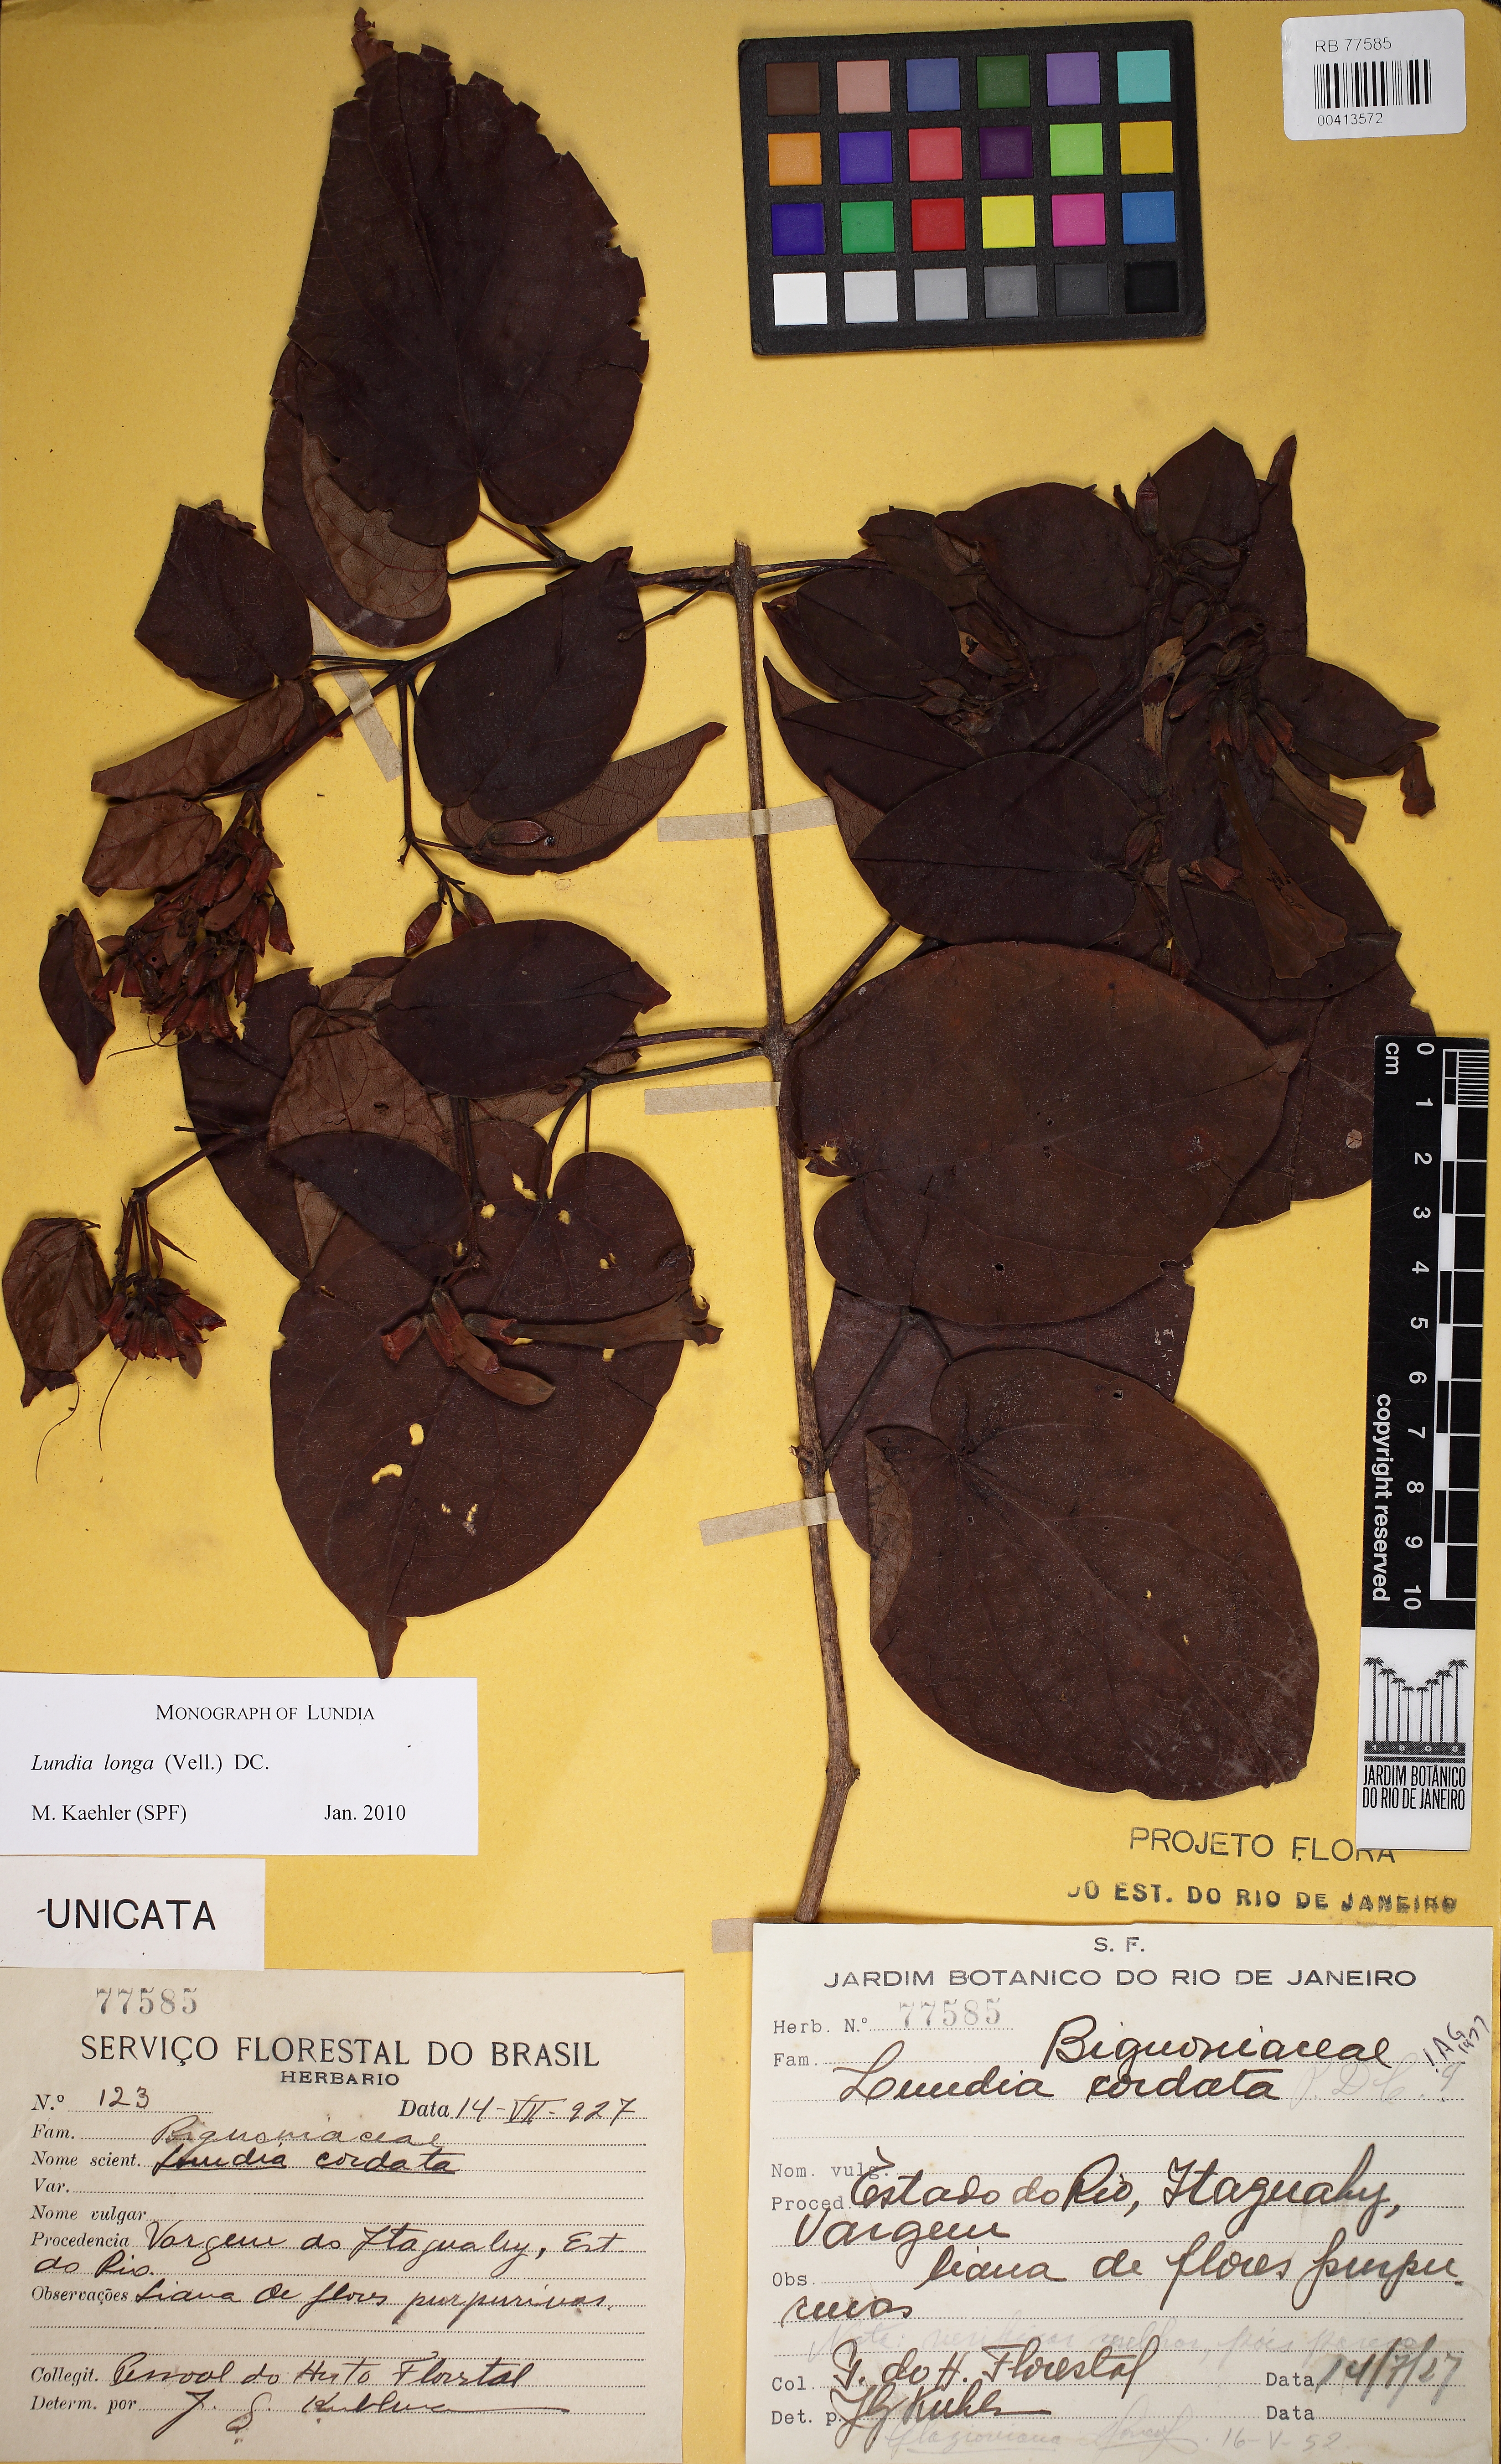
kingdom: Plantae
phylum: Tracheophyta
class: Magnoliopsida
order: Lamiales
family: Bignoniaceae
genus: Lundia
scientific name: Lundia longa
